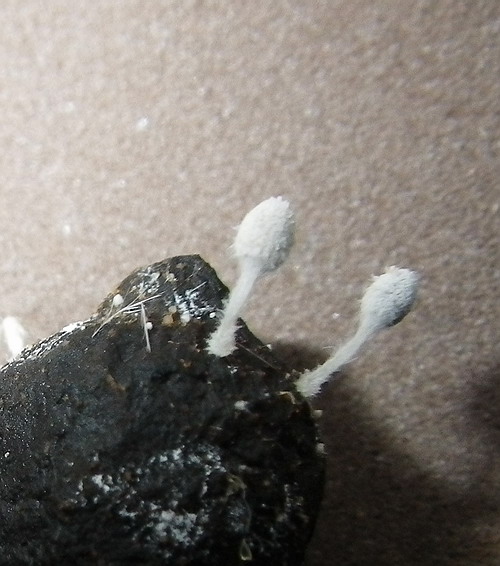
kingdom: Fungi
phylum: Basidiomycota
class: Agaricomycetes
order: Agaricales
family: Psathyrellaceae
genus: Coprinopsis
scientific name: Coprinopsis stercorea
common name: pjusket blækhat
